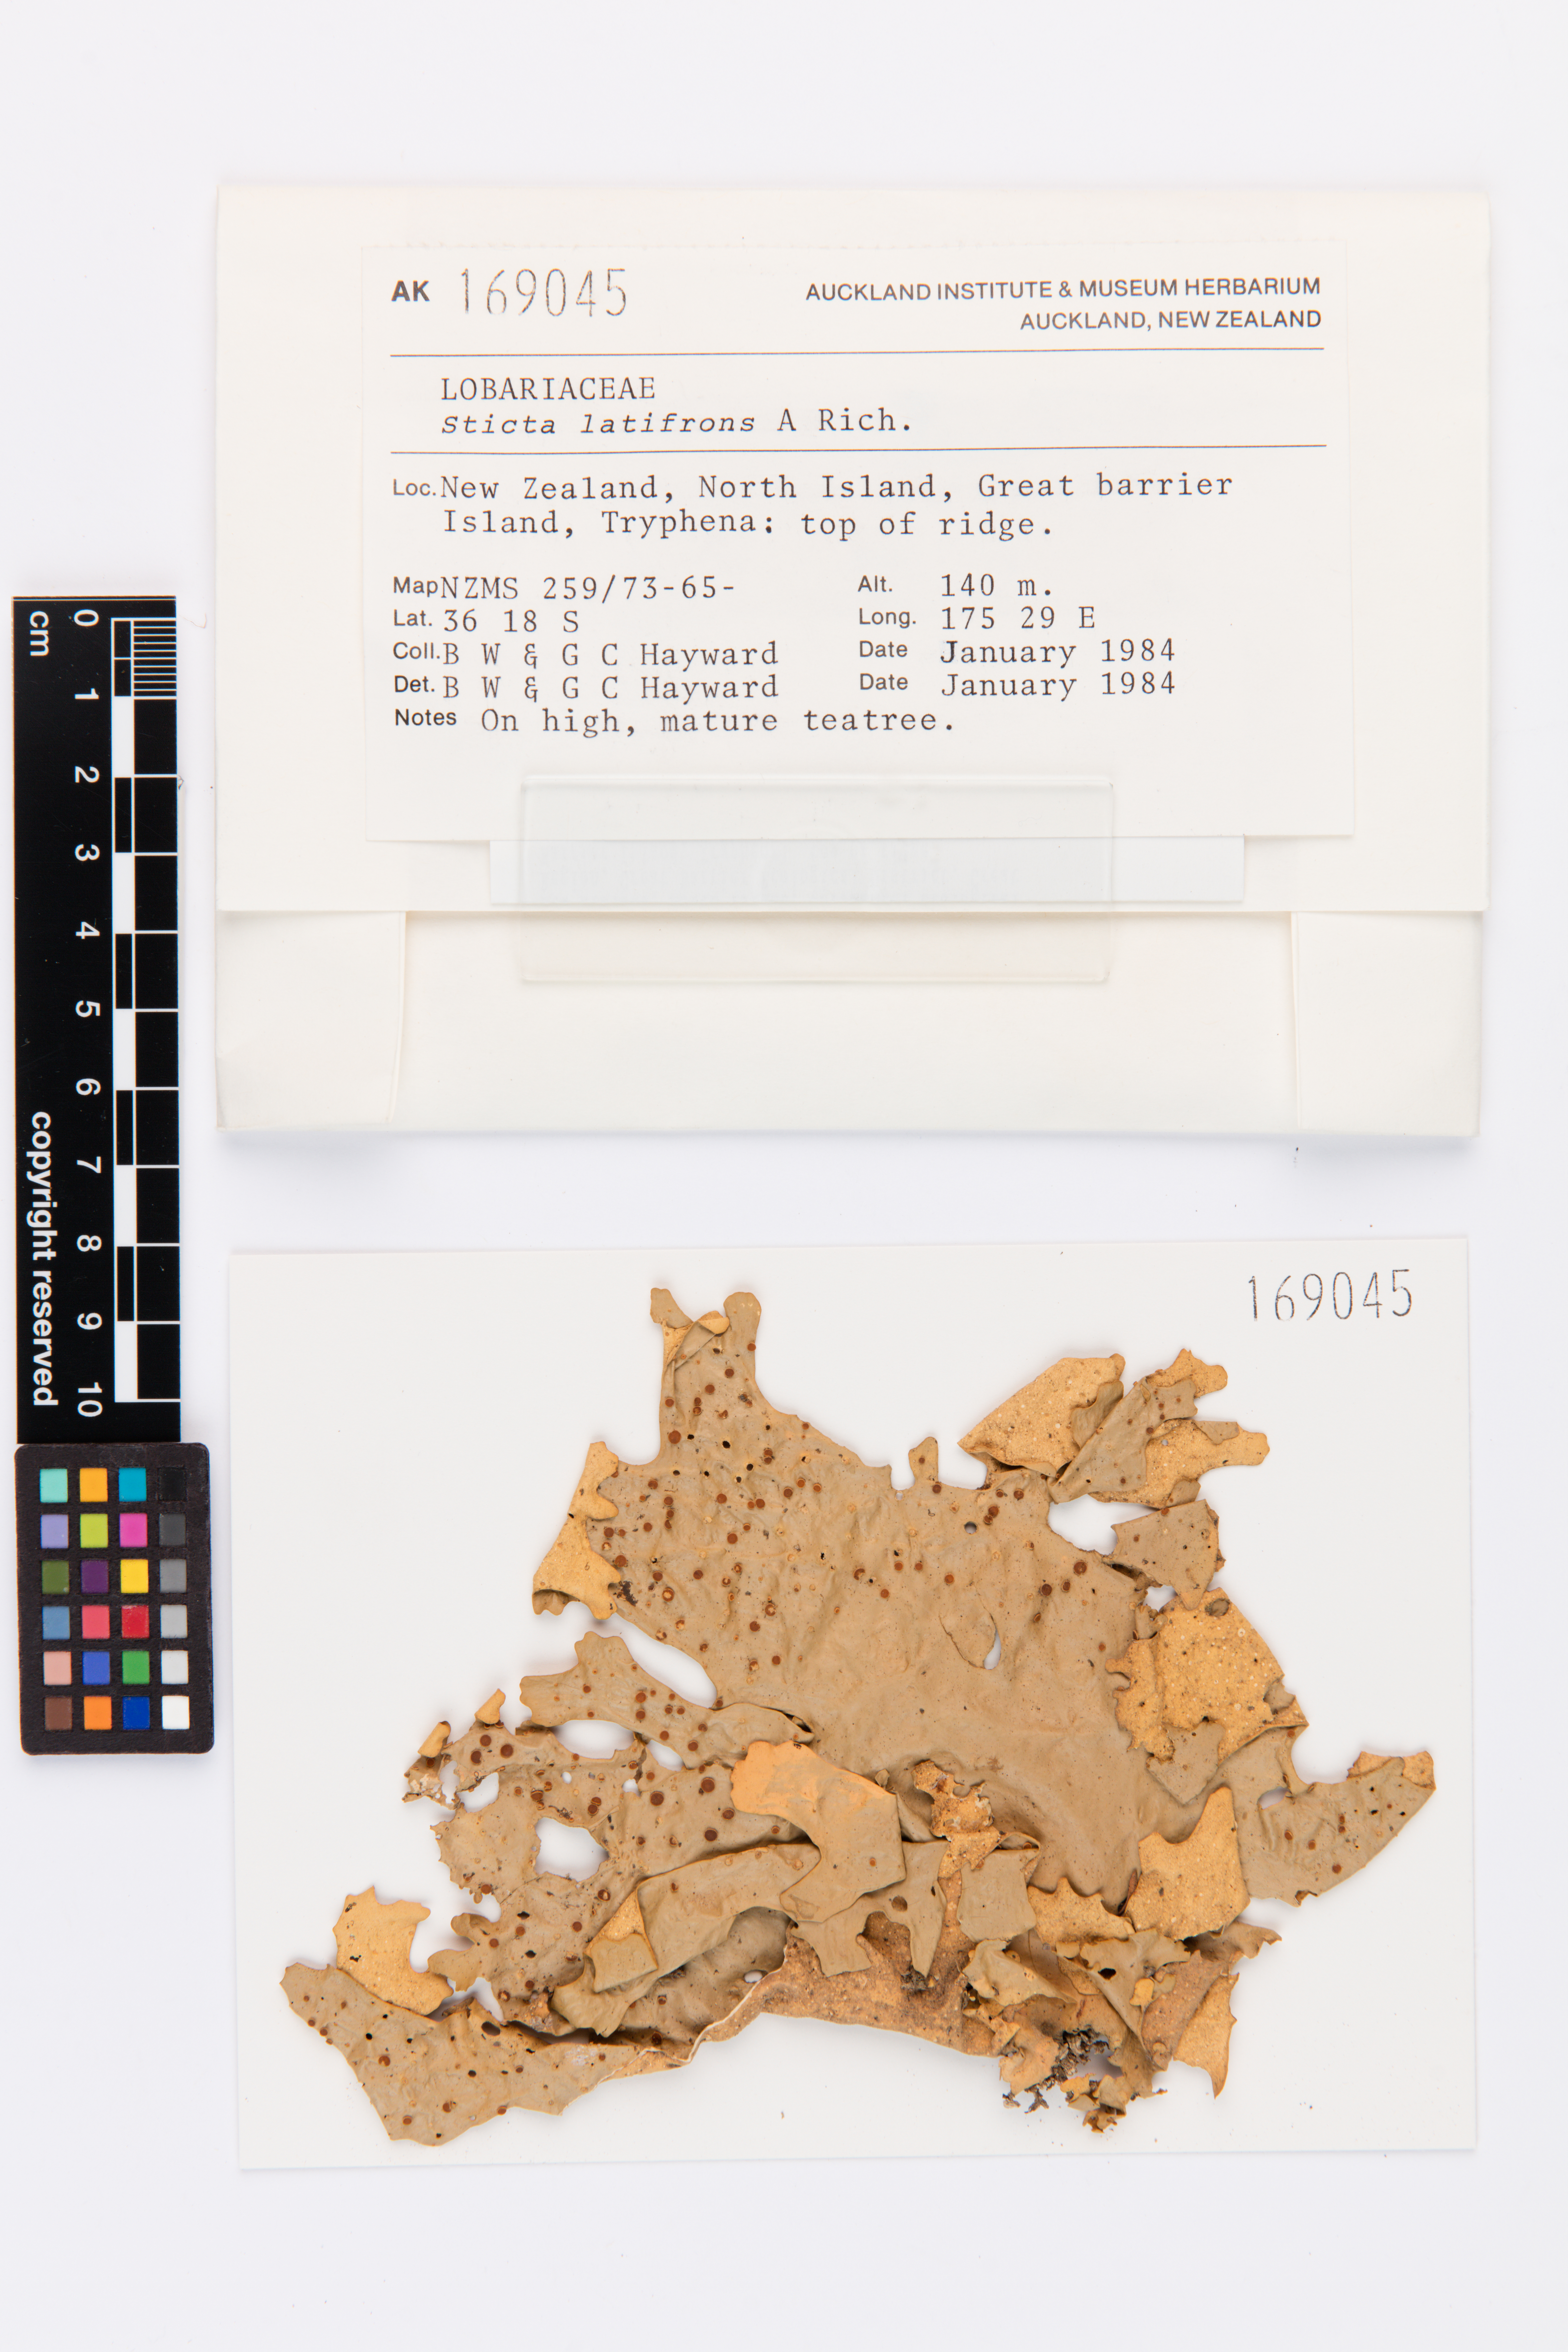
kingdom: Fungi
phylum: Ascomycota
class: Lecanoromycetes
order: Peltigerales
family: Lobariaceae
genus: Sticta
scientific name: Sticta latifrons
